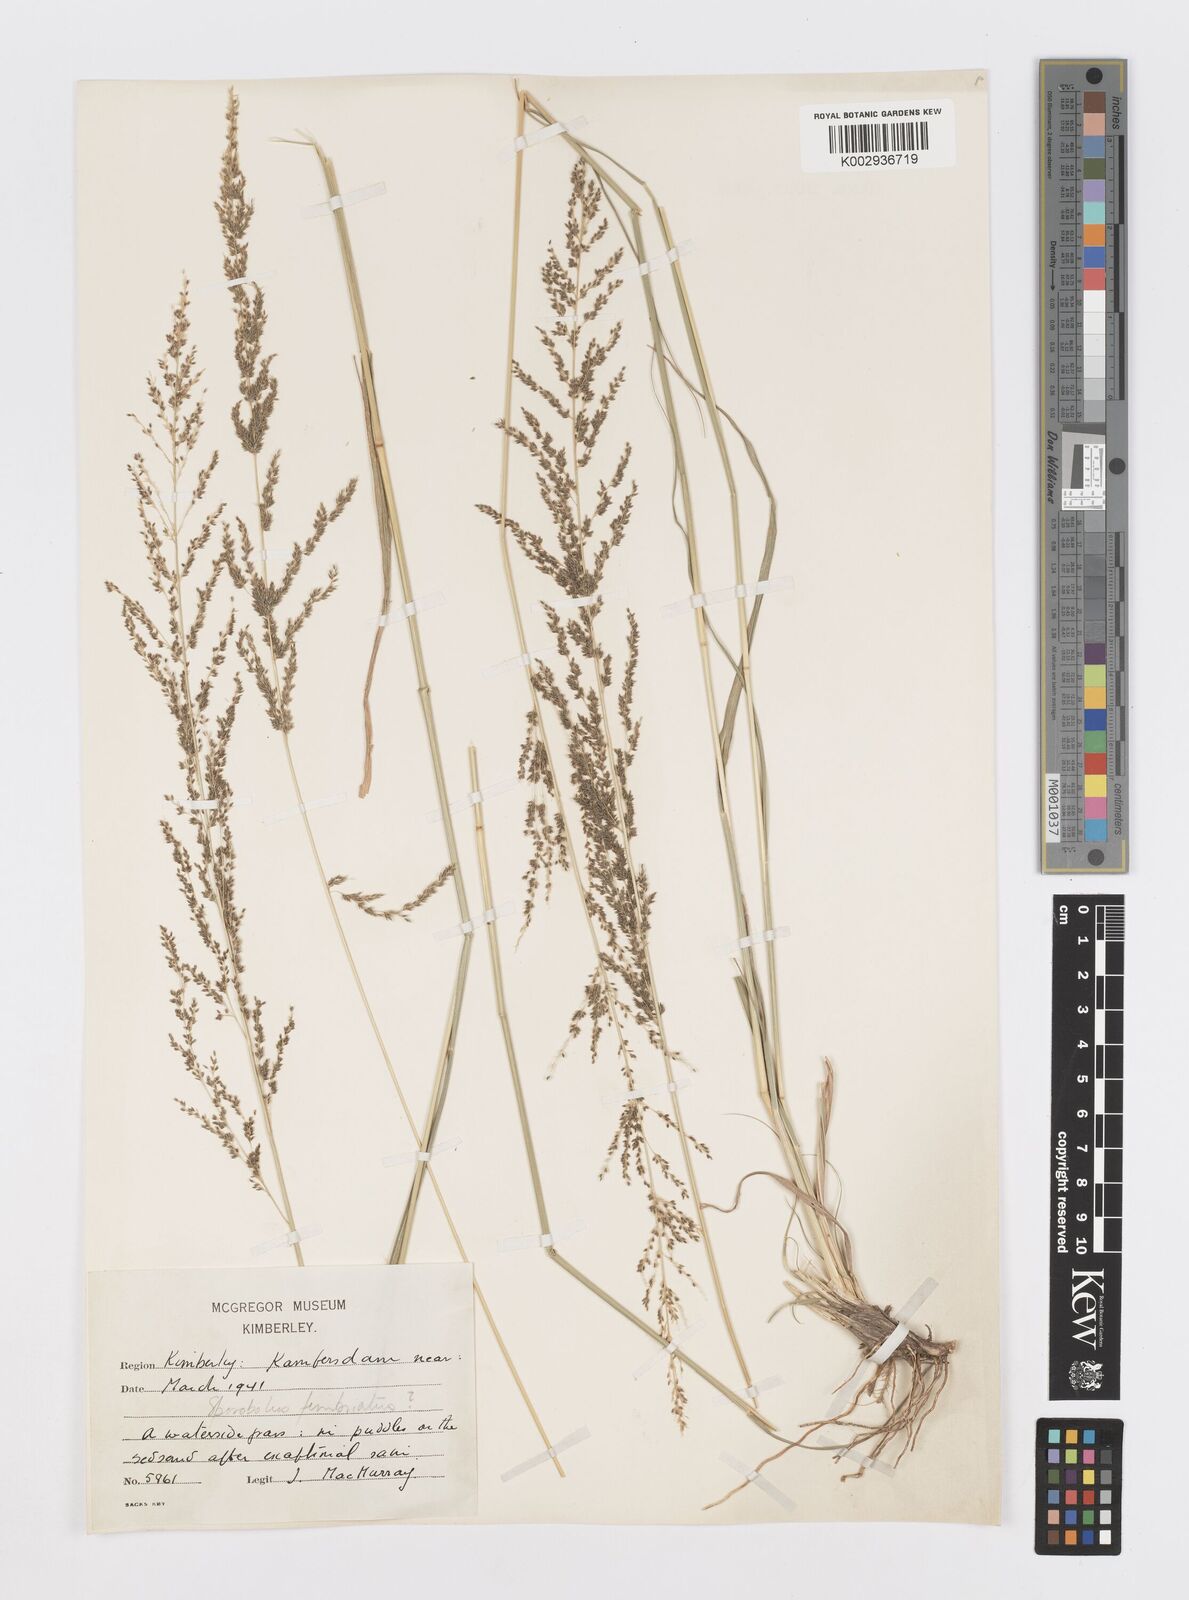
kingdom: Plantae
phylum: Tracheophyta
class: Liliopsida
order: Poales
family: Poaceae
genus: Sporobolus
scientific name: Sporobolus fimbriatus
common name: Fringed dropseed
